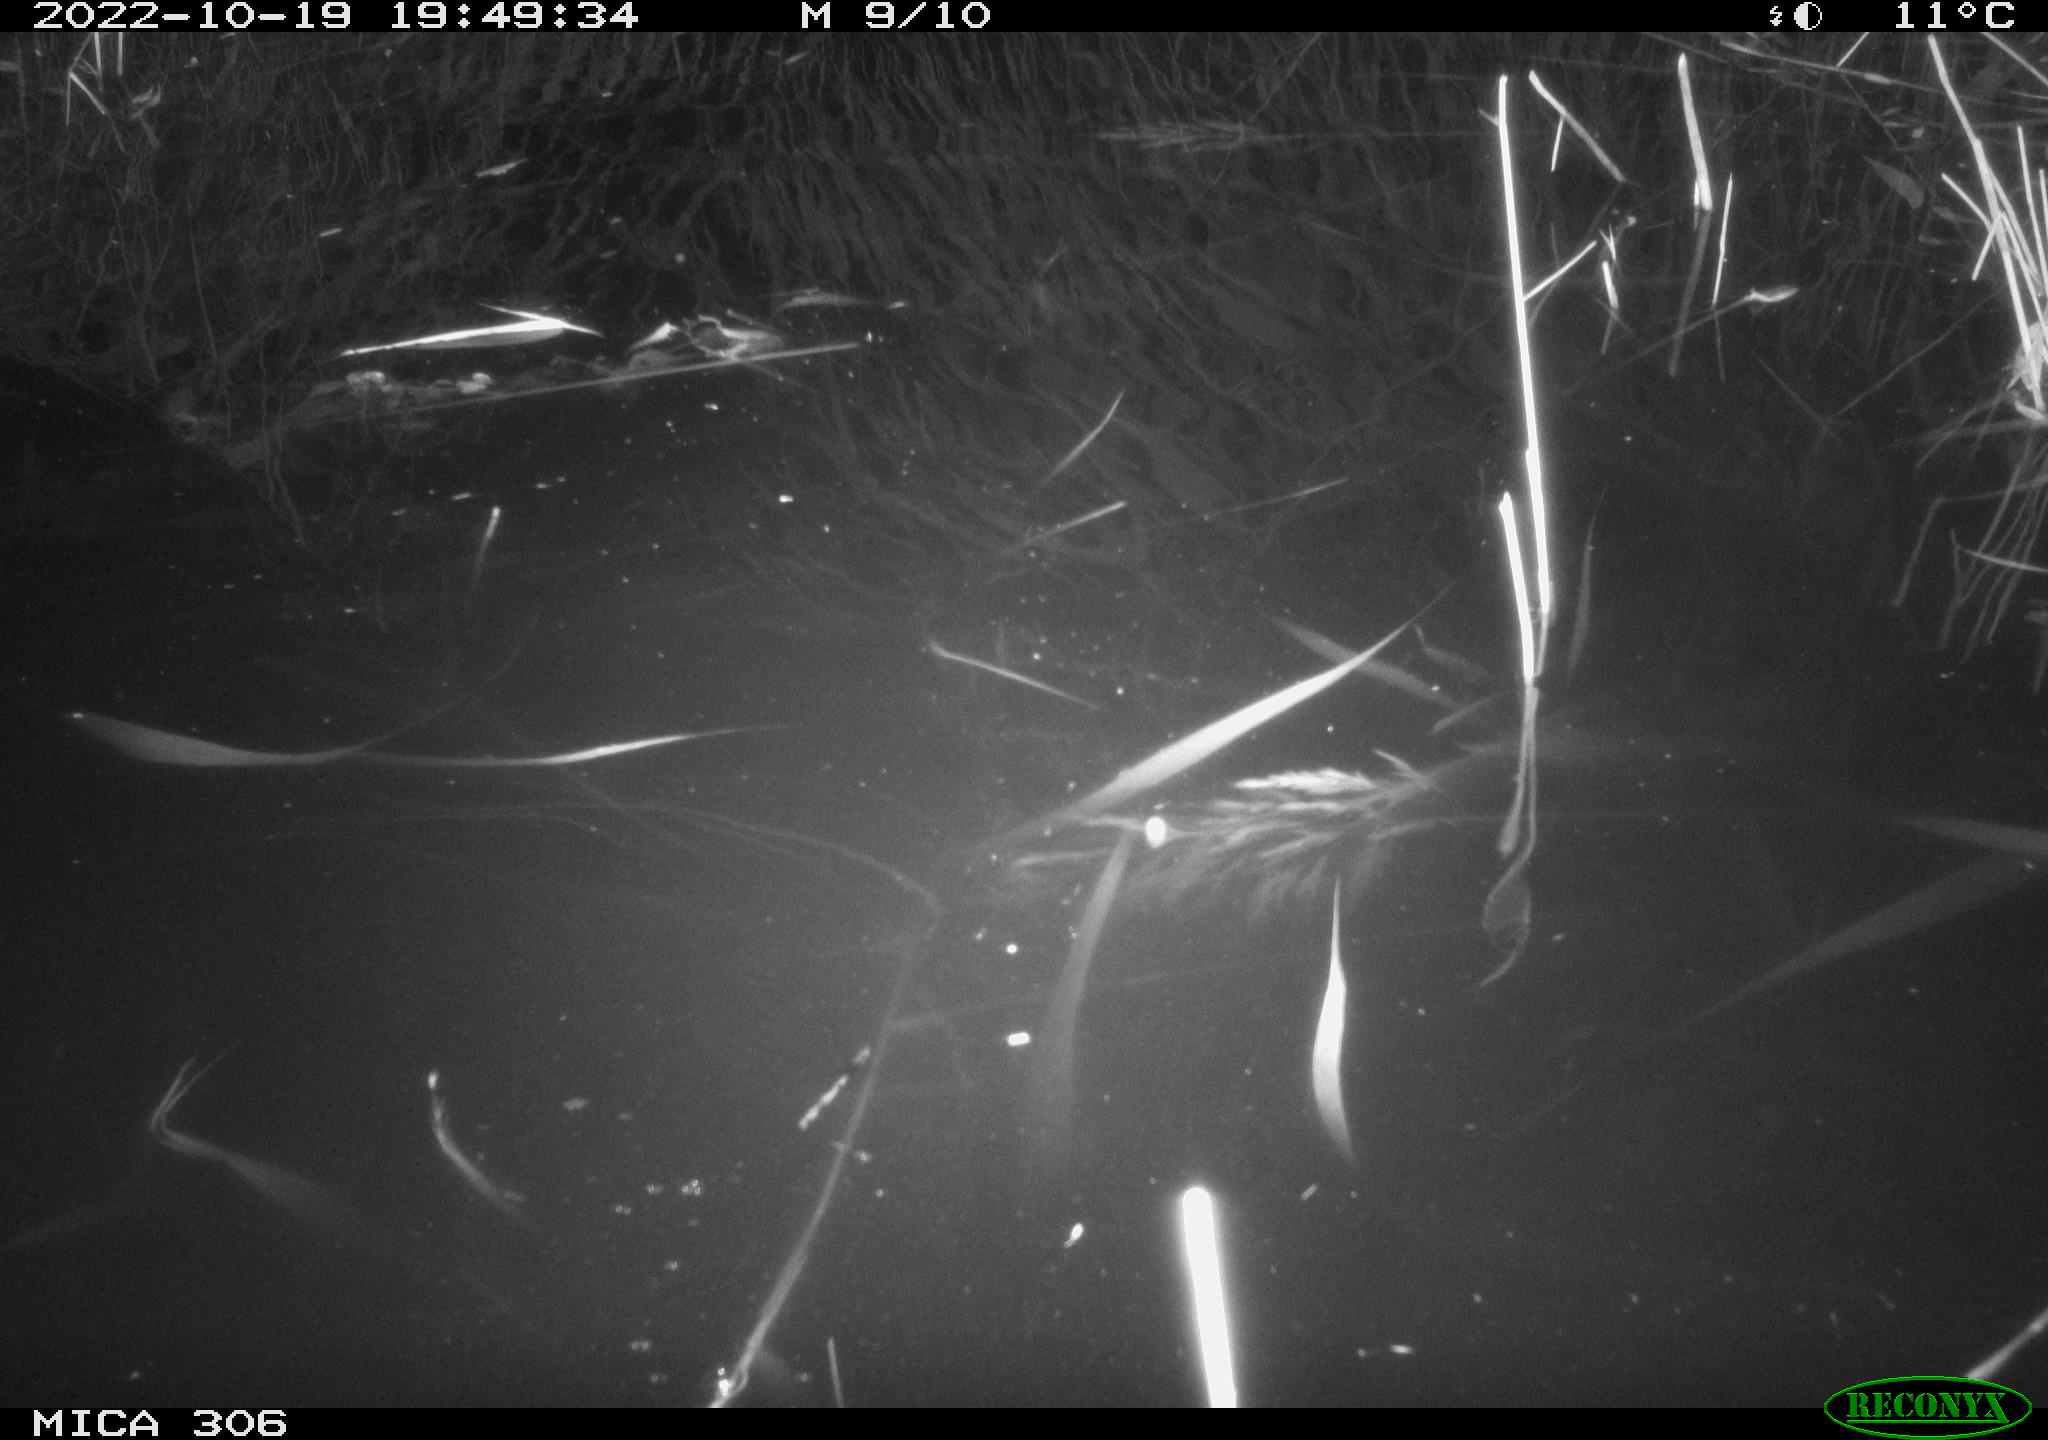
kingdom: Animalia
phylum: Chordata
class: Mammalia
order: Rodentia
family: Cricetidae
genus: Ondatra
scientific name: Ondatra zibethicus
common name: Muskrat
